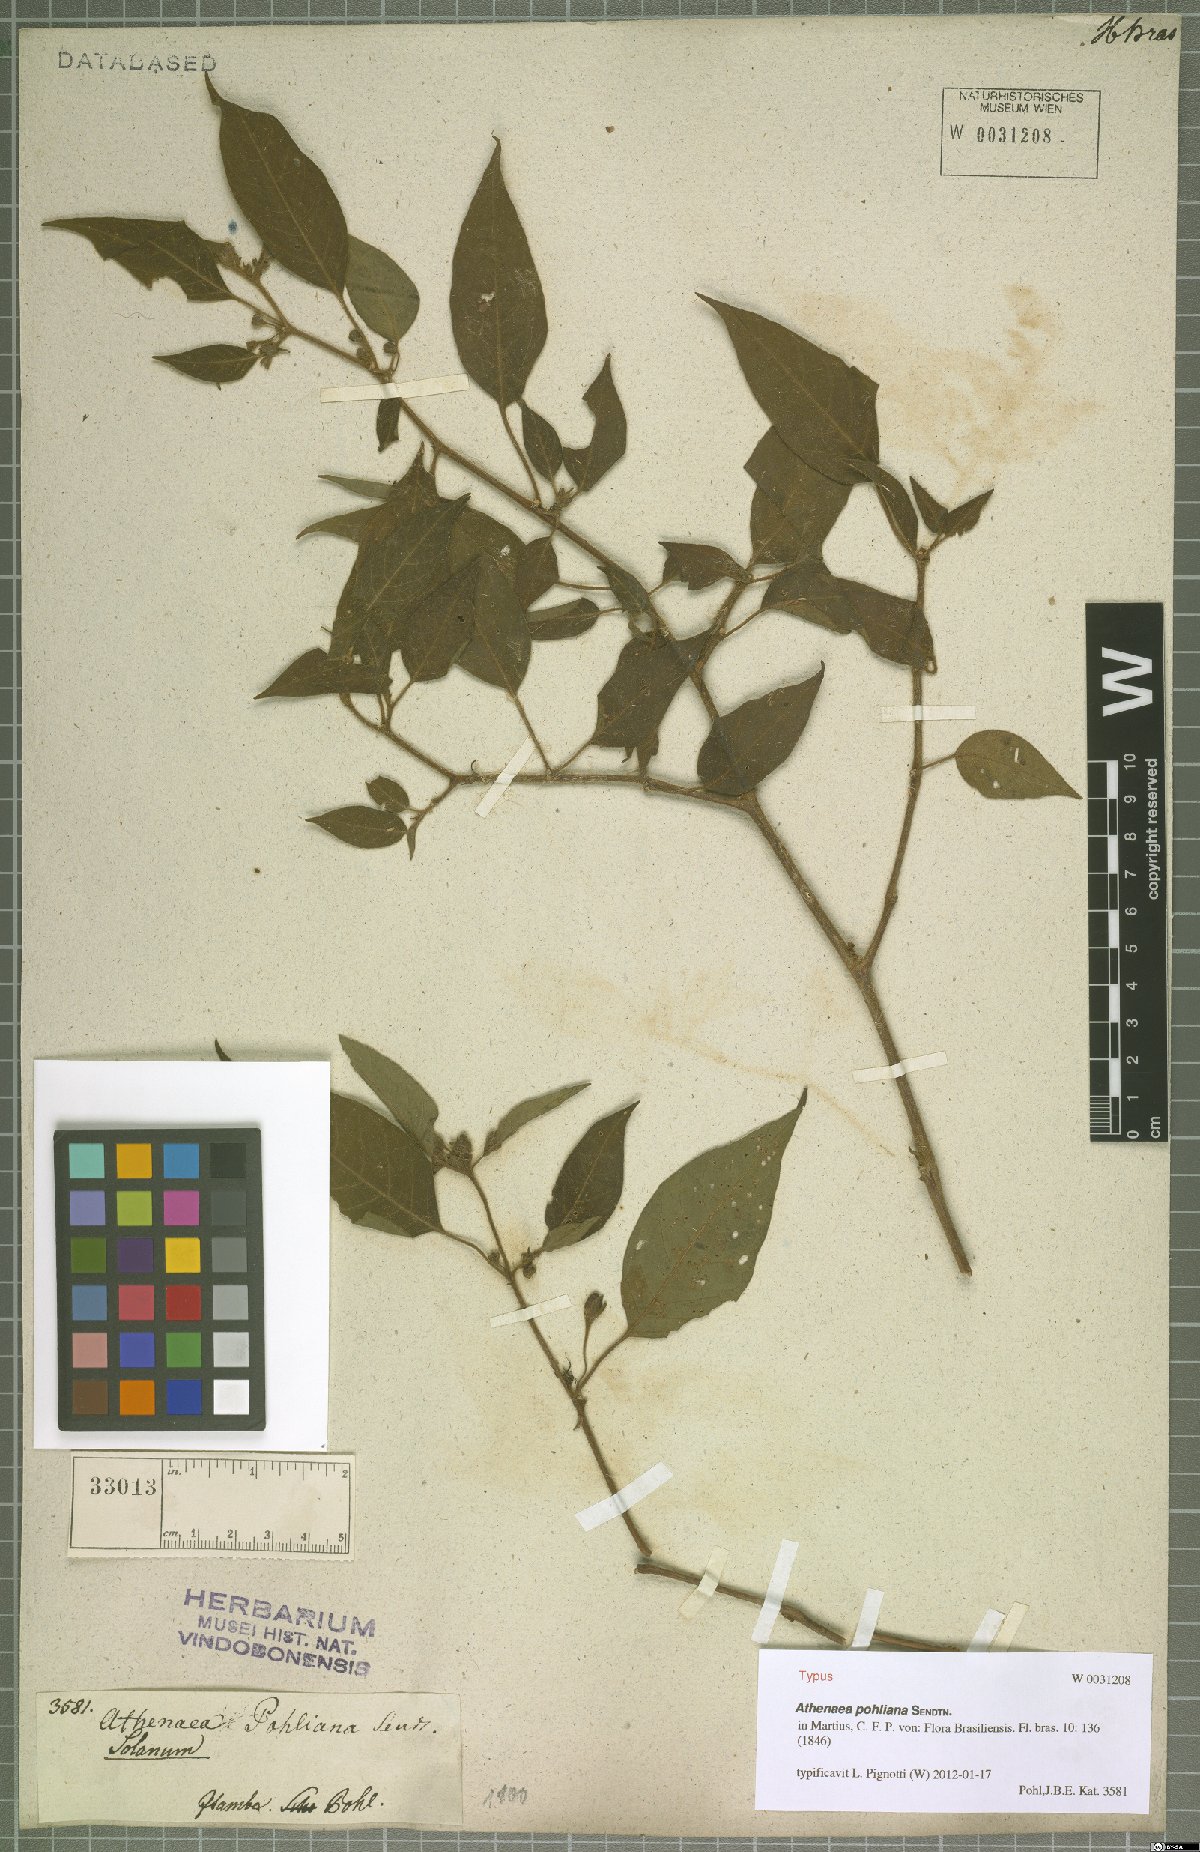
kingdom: Plantae
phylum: Tracheophyta
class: Magnoliopsida
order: Solanales
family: Solanaceae
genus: Athenaea
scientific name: Athenaea pogogena
